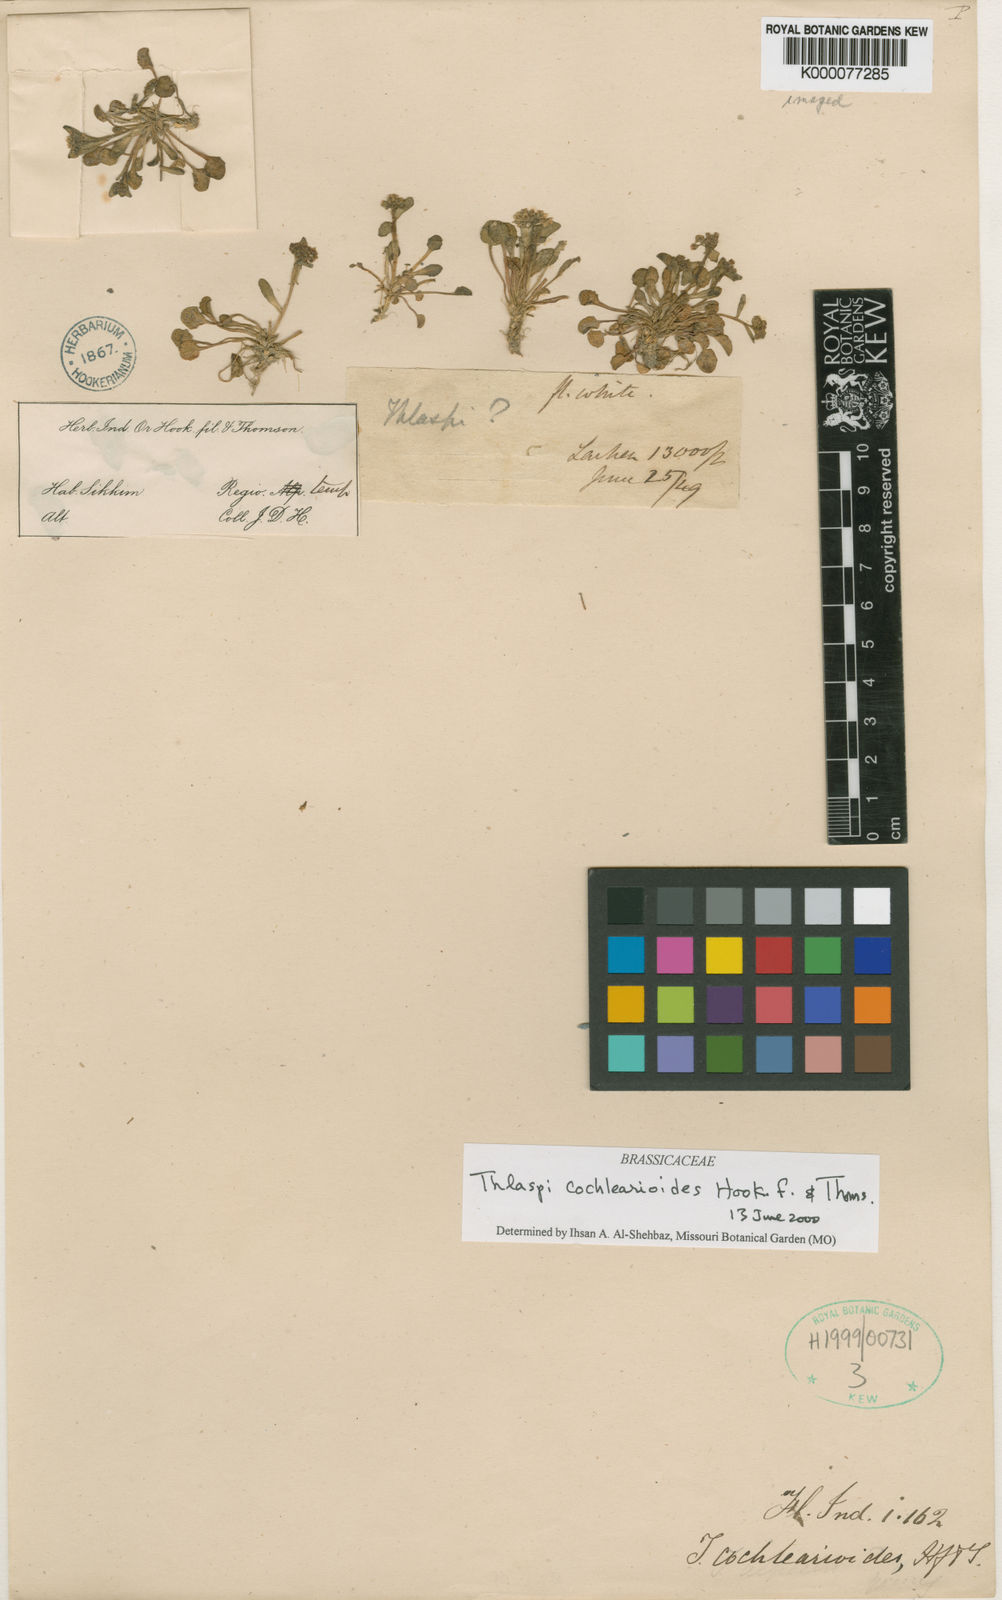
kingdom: Plantae
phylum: Tracheophyta
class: Magnoliopsida
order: Brassicales
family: Brassicaceae
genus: Noccaea
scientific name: Noccaea cochlearioides
